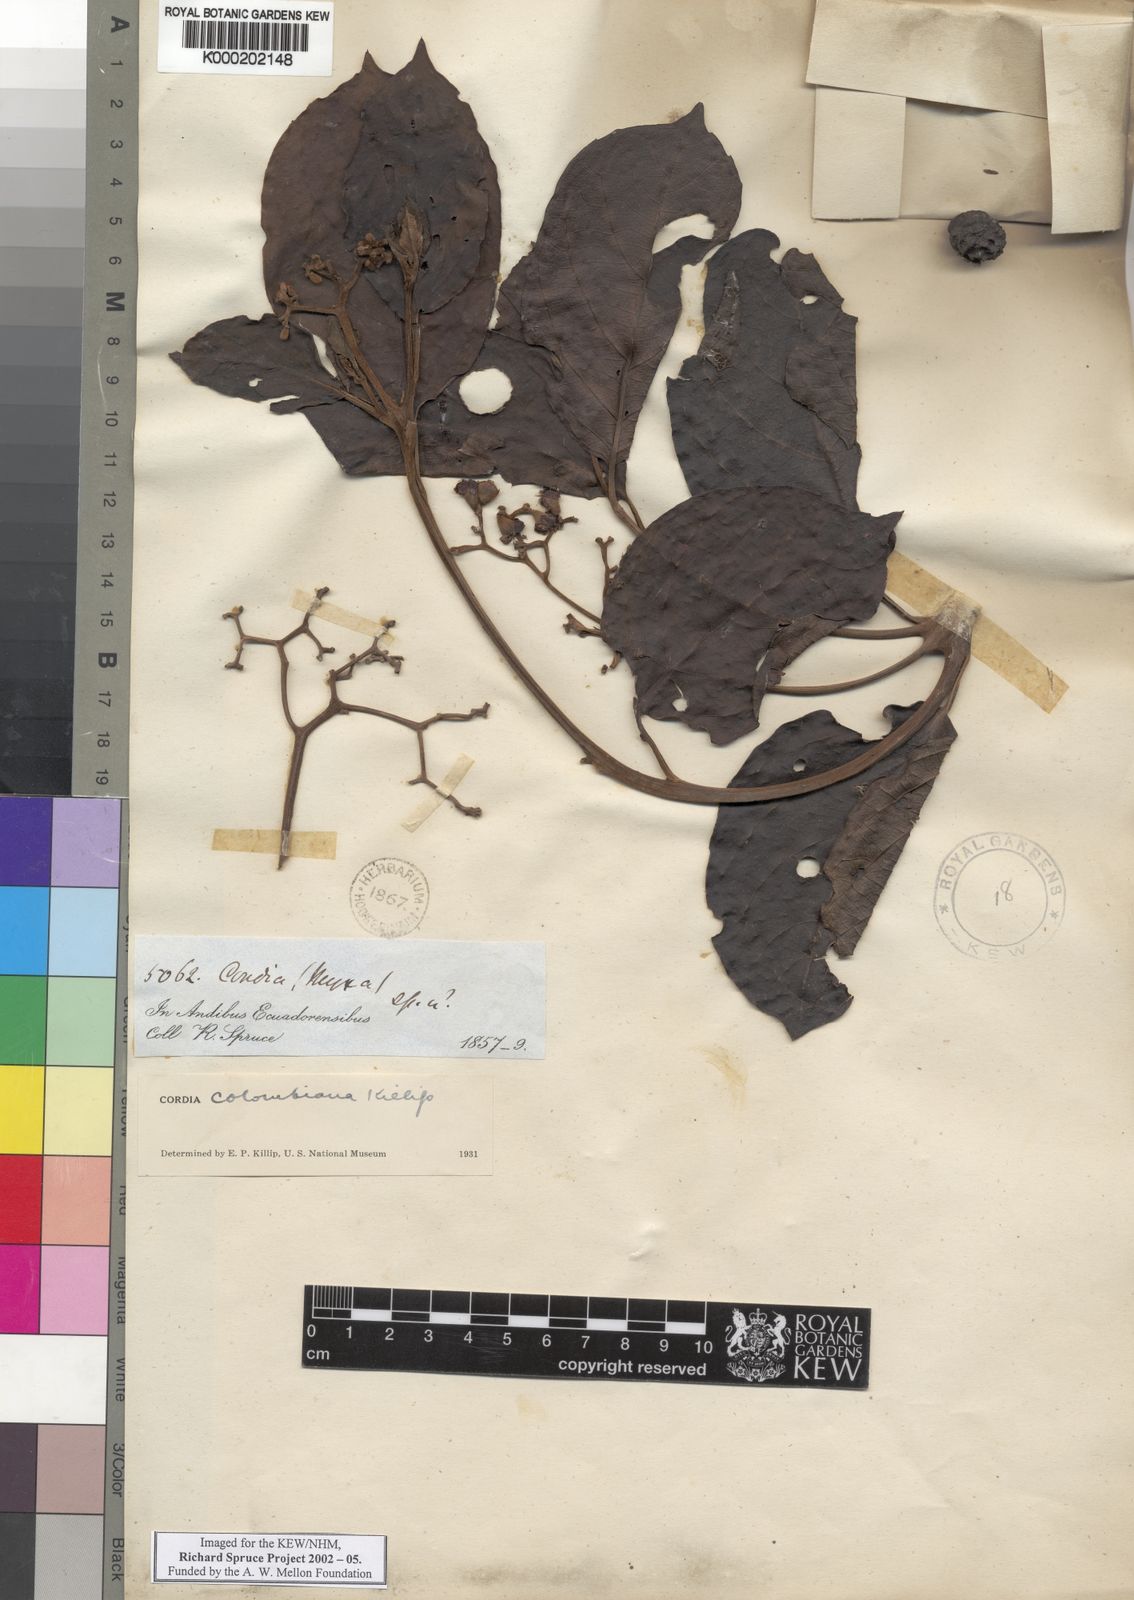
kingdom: Plantae
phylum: Tracheophyta
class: Magnoliopsida
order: Boraginales
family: Cordiaceae
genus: Cordia
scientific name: Cordia colombiana
